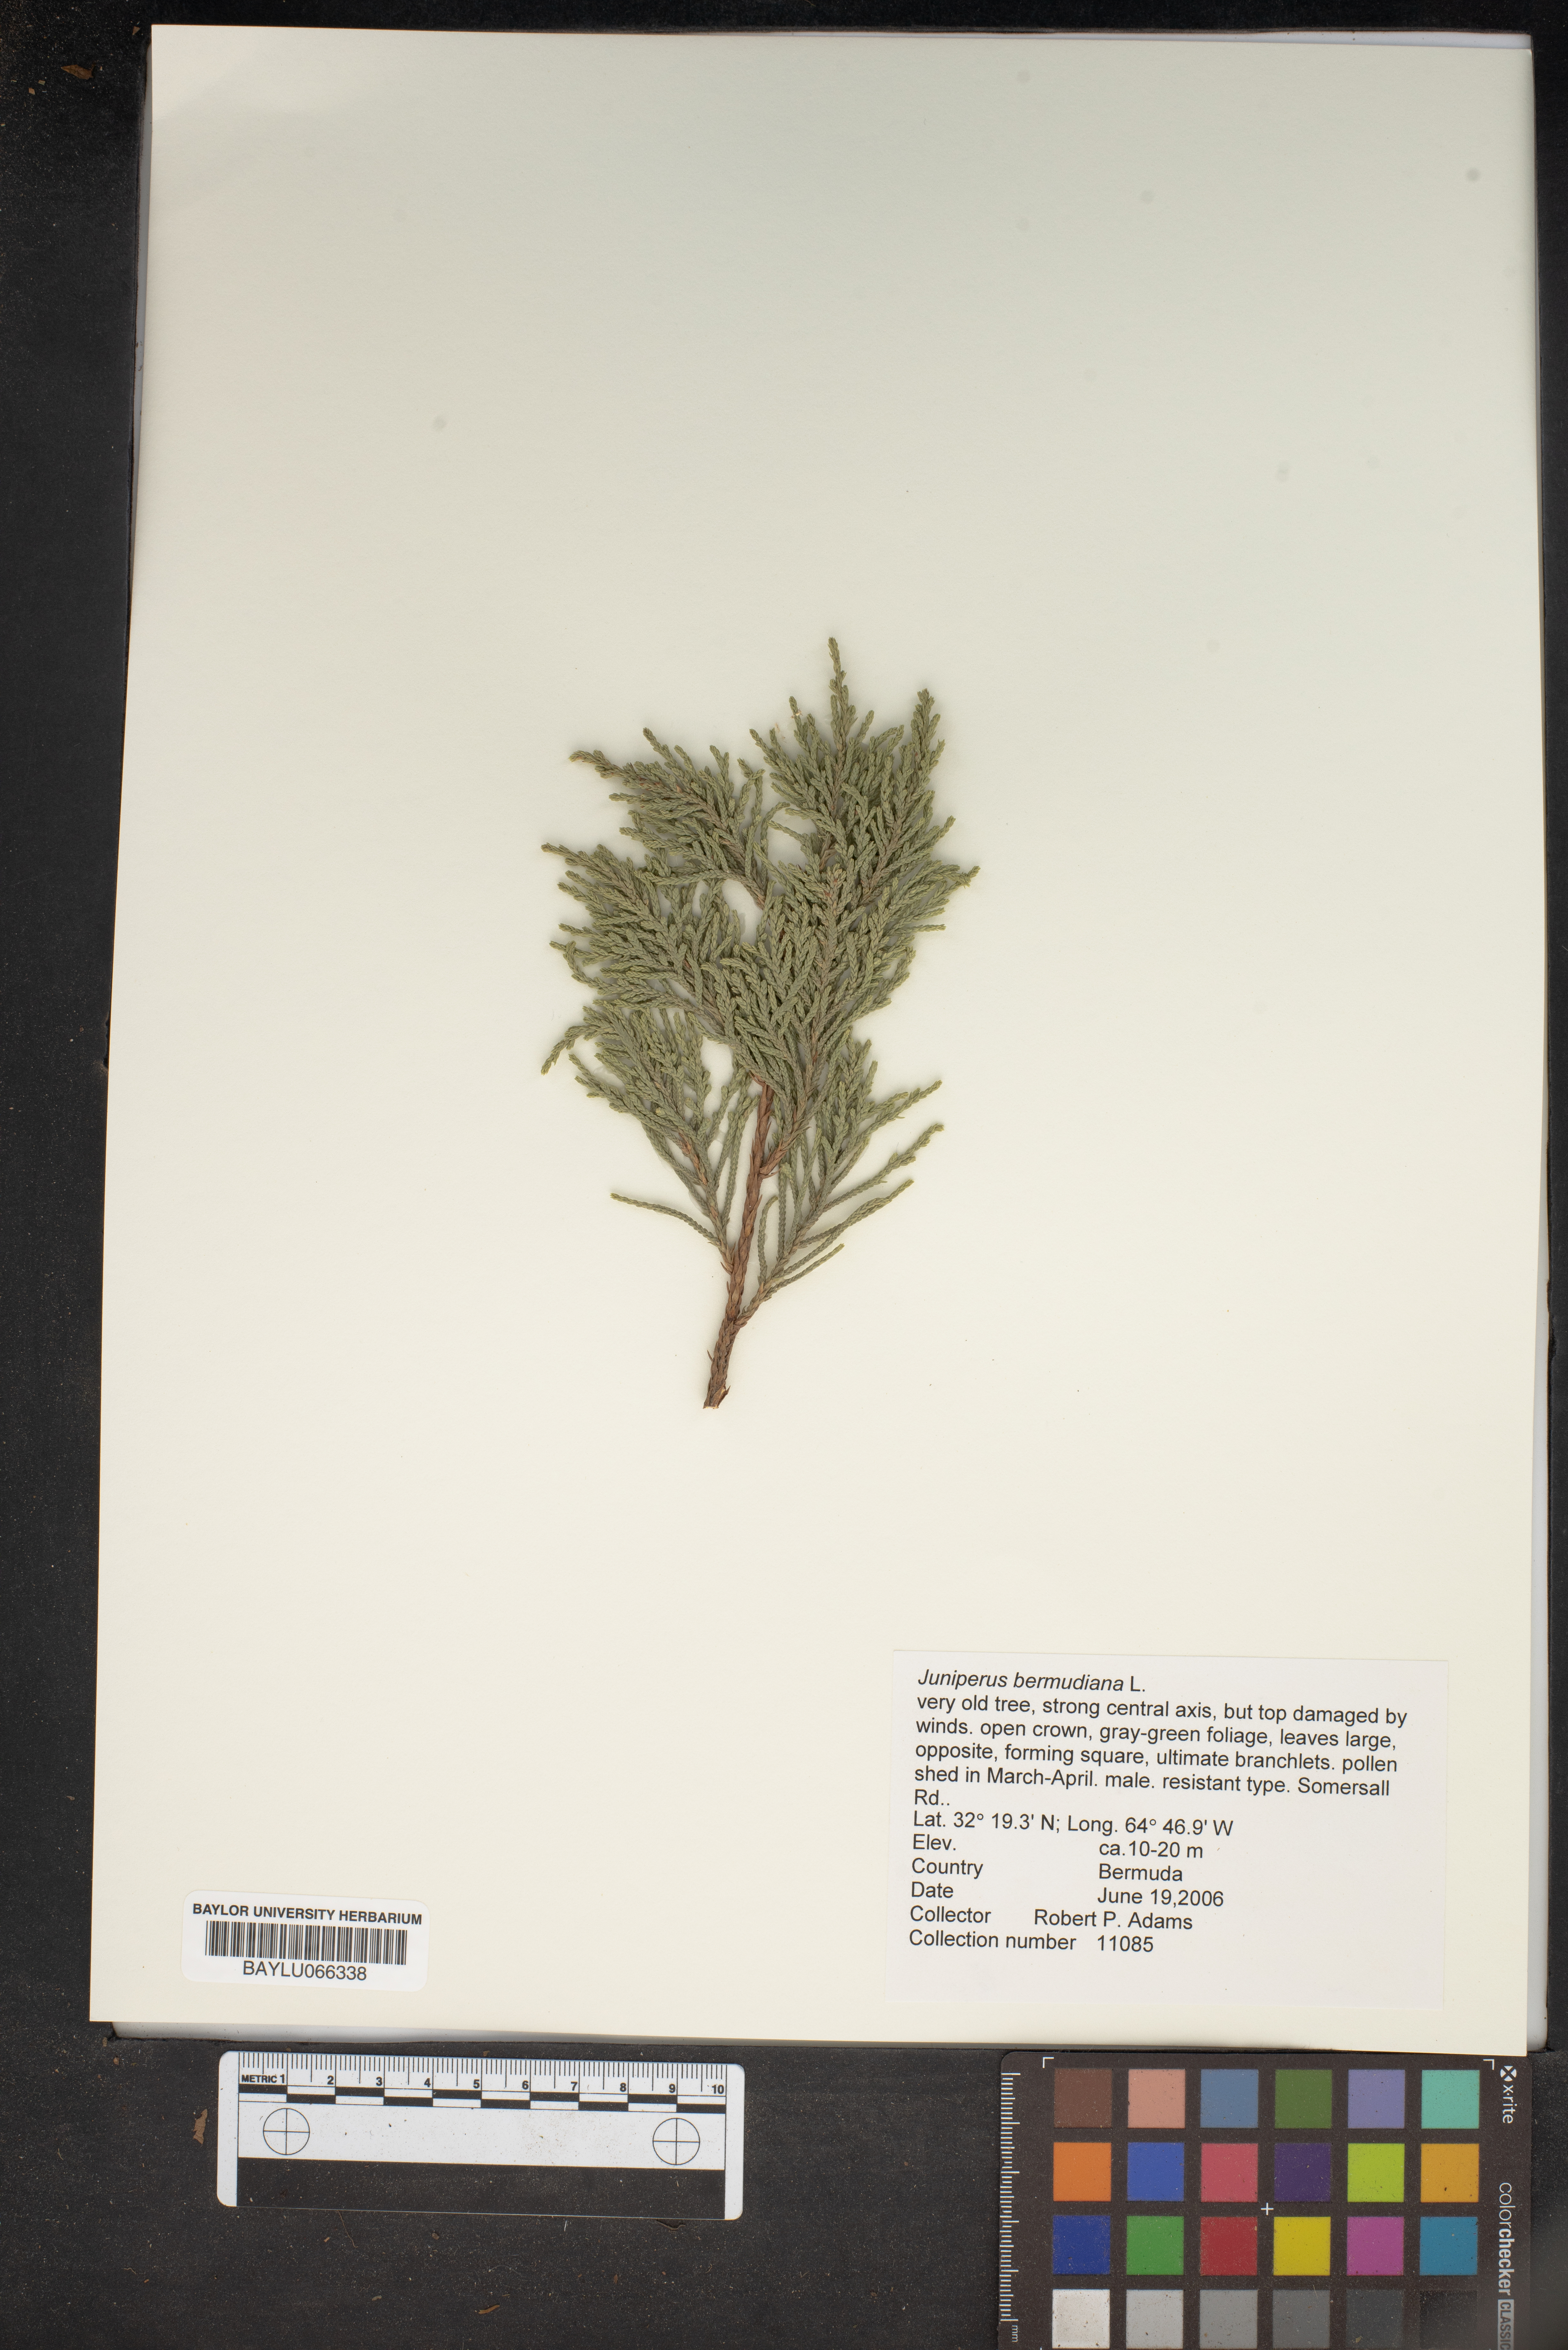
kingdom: Plantae
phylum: Tracheophyta
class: Pinopsida
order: Pinales
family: Cupressaceae
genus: Juniperus
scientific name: Juniperus bermudiana
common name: Bermuda juniper
